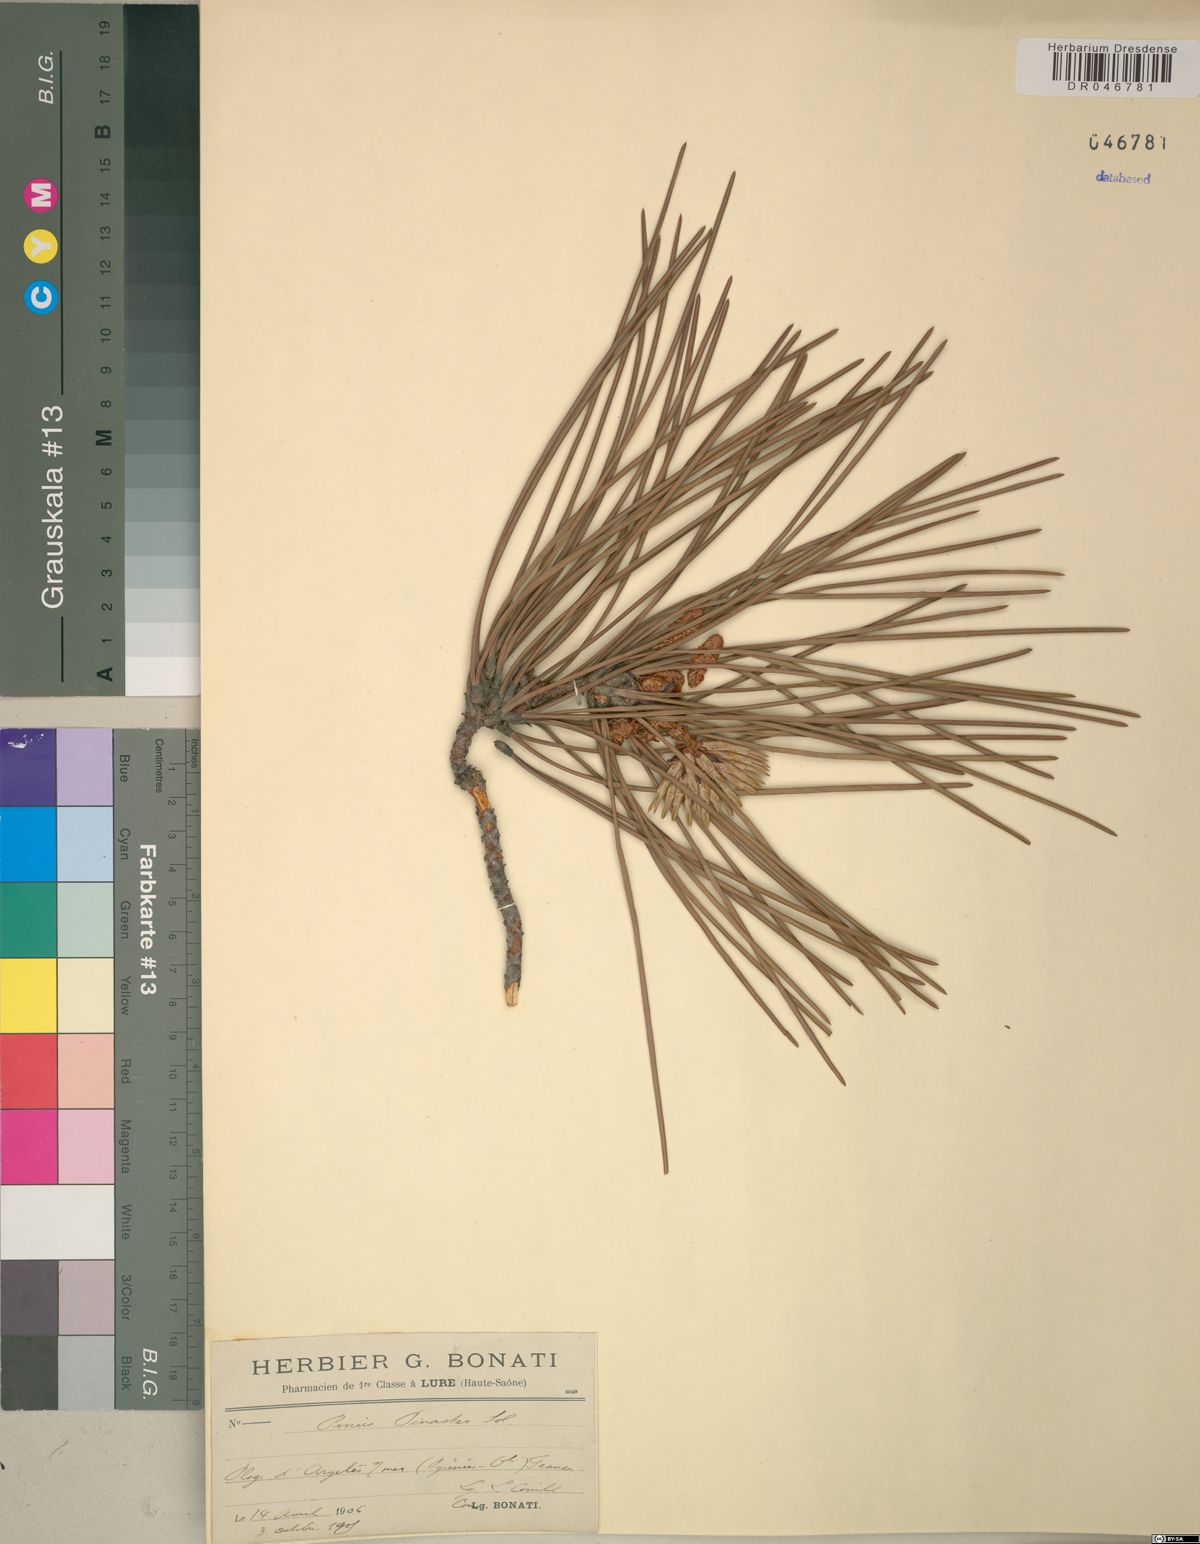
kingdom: Plantae
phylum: Tracheophyta
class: Pinopsida
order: Pinales
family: Pinaceae
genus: Pinus
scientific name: Pinus pinaster
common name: Maritime pine
